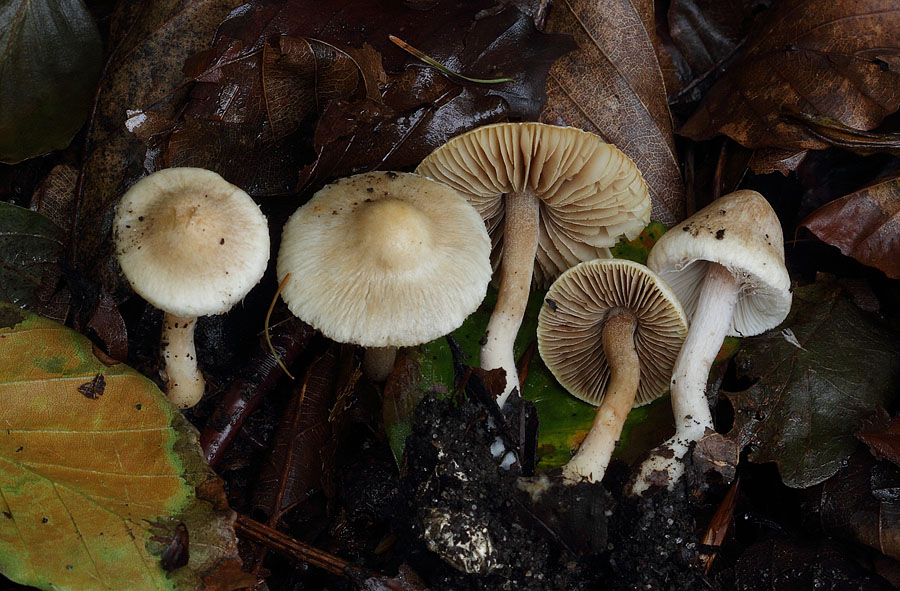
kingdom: Fungi
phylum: Basidiomycota
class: Agaricomycetes
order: Agaricales
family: Inocybaceae
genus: Inocybe
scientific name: Inocybe sindonia
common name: bleg trævlhat
